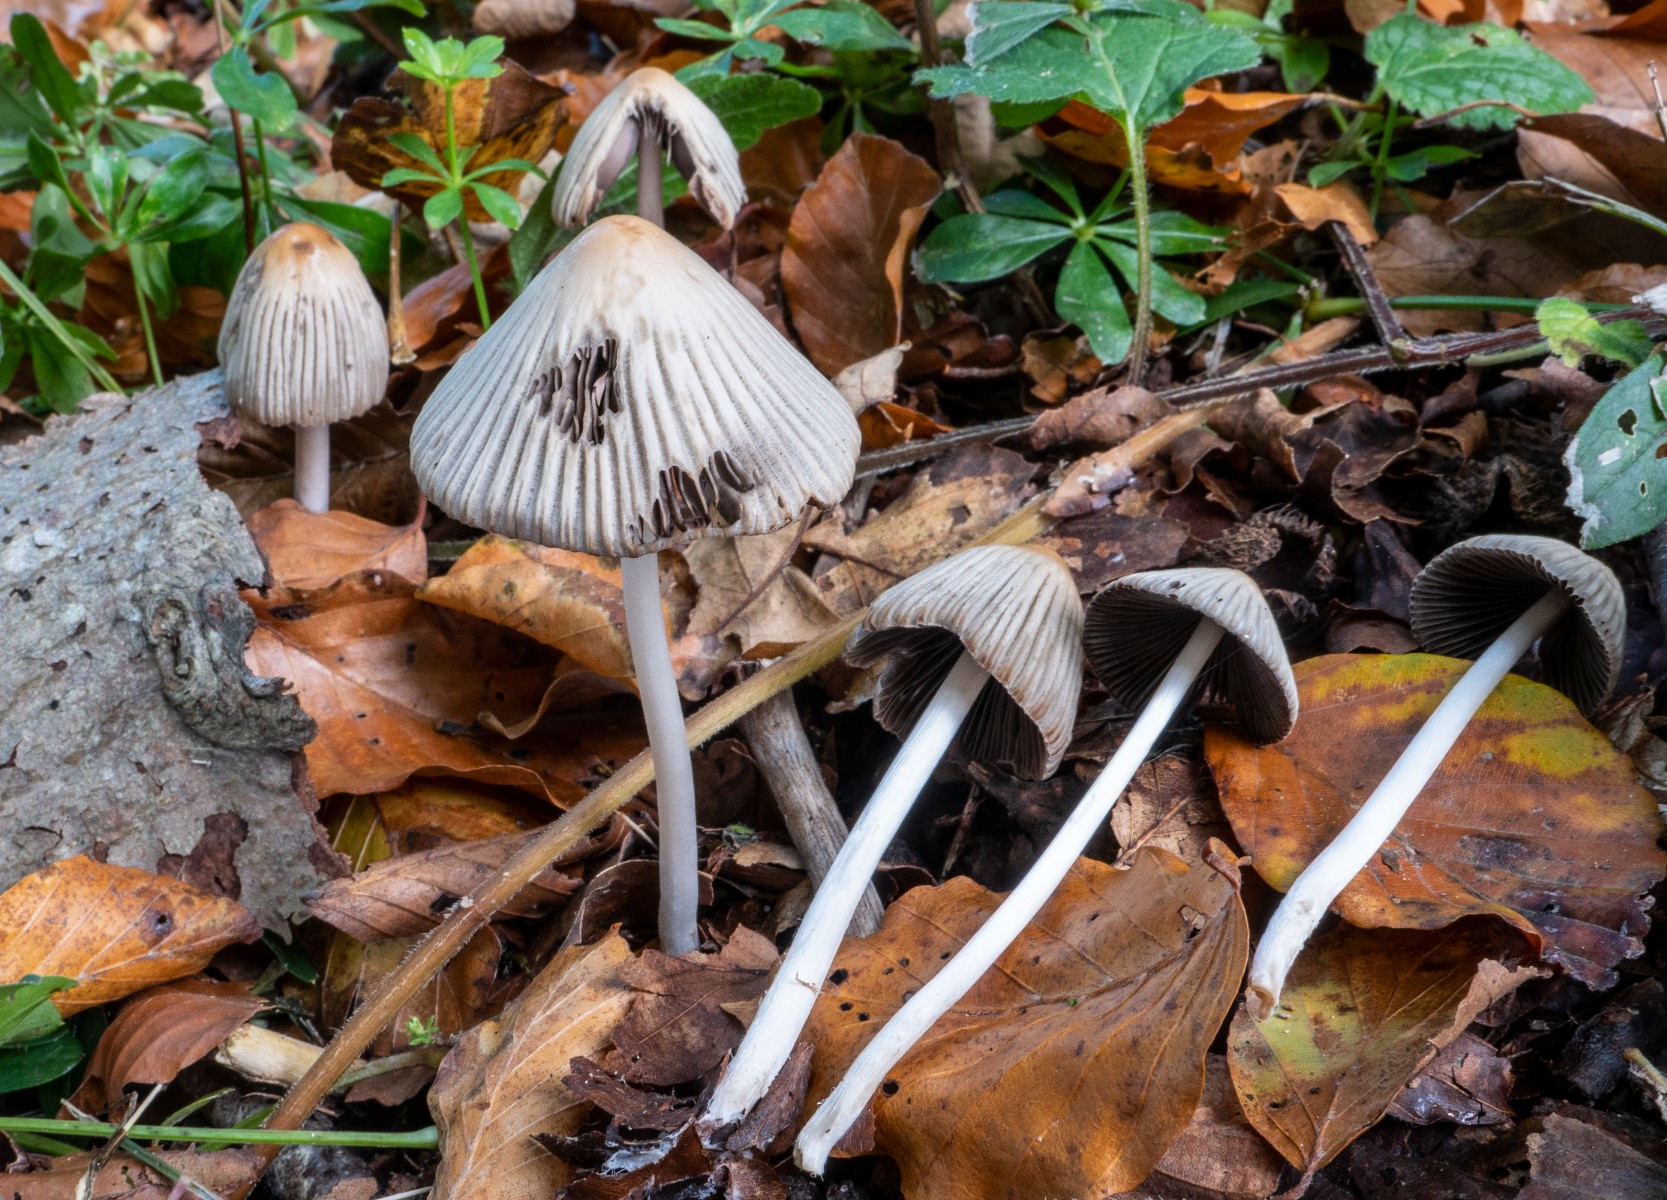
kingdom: Fungi
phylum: Basidiomycota
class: Agaricomycetes
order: Agaricales
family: Psathyrellaceae
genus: Tulosesus
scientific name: Tulosesus impatiens
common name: furet blækhat
